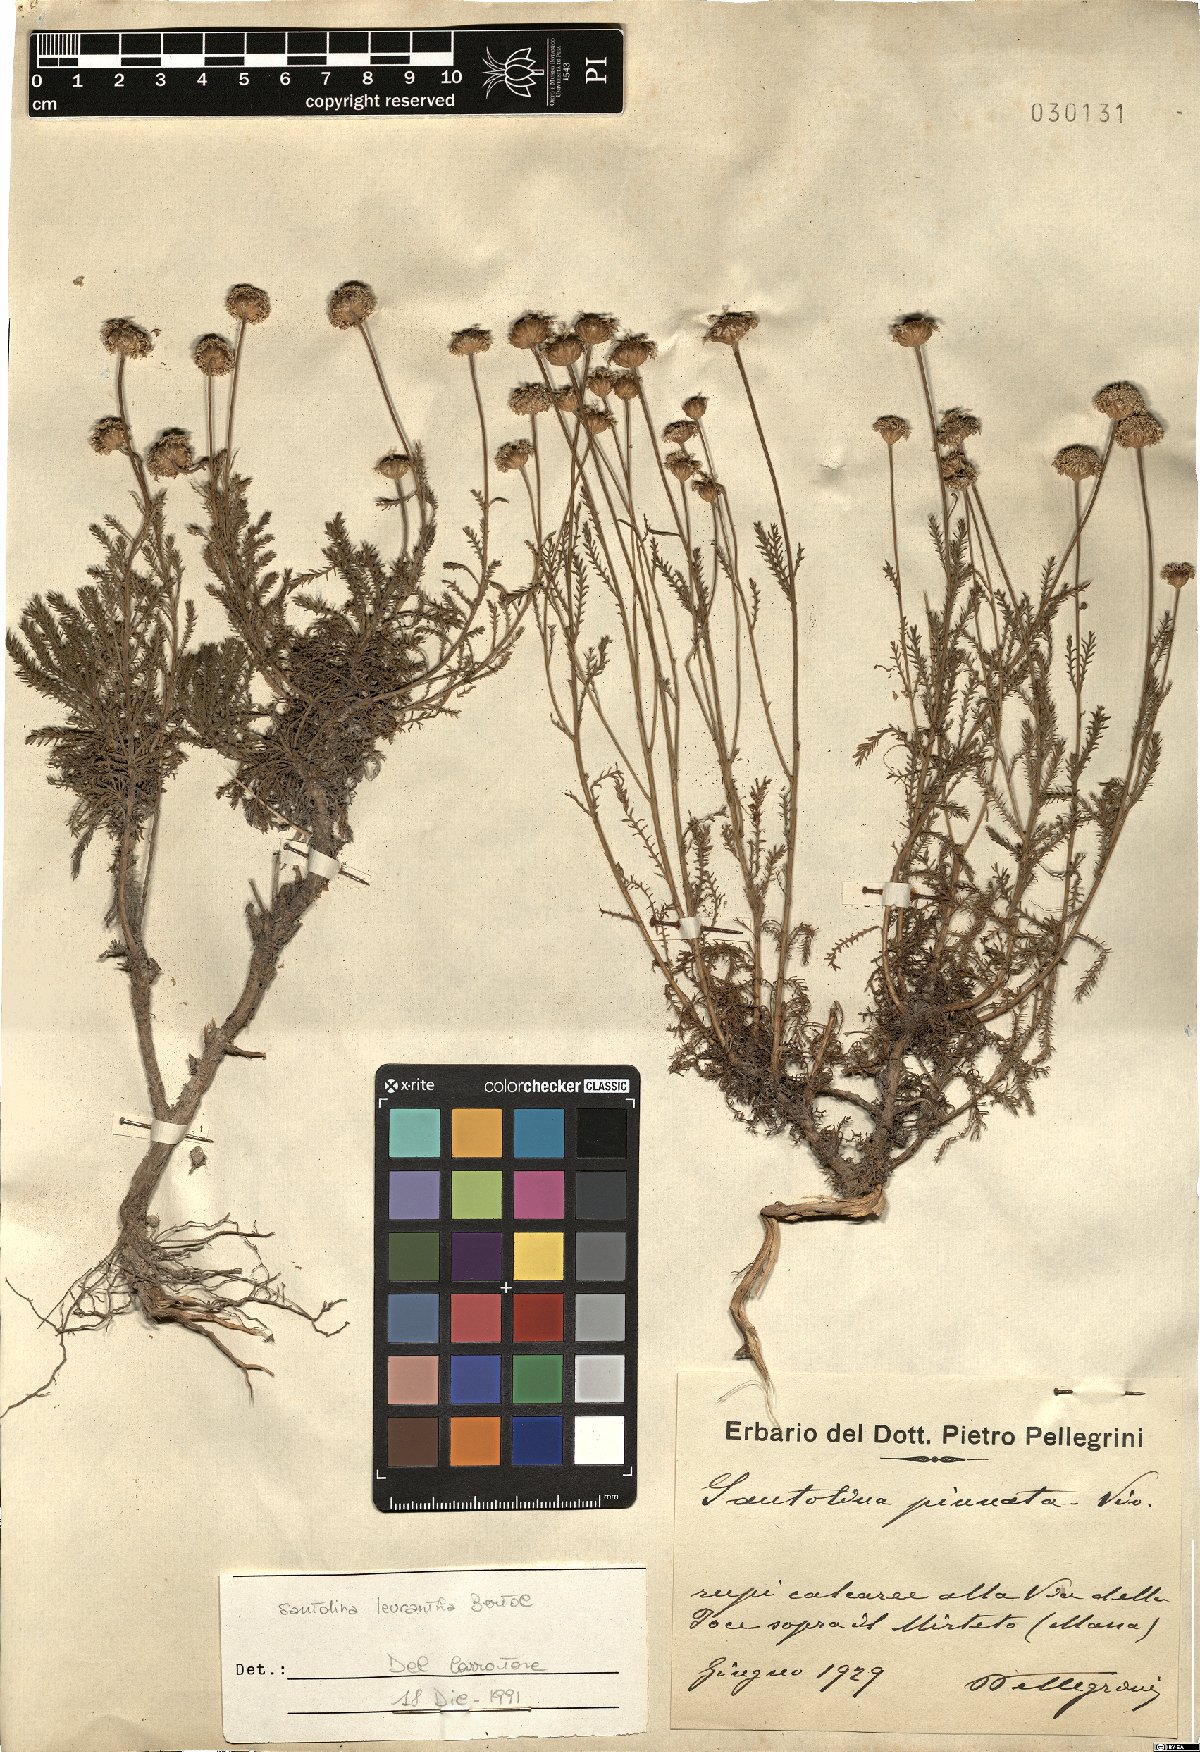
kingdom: Plantae
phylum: Tracheophyta
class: Magnoliopsida
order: Asterales
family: Asteraceae
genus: Santolina
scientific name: Santolina pinnata
